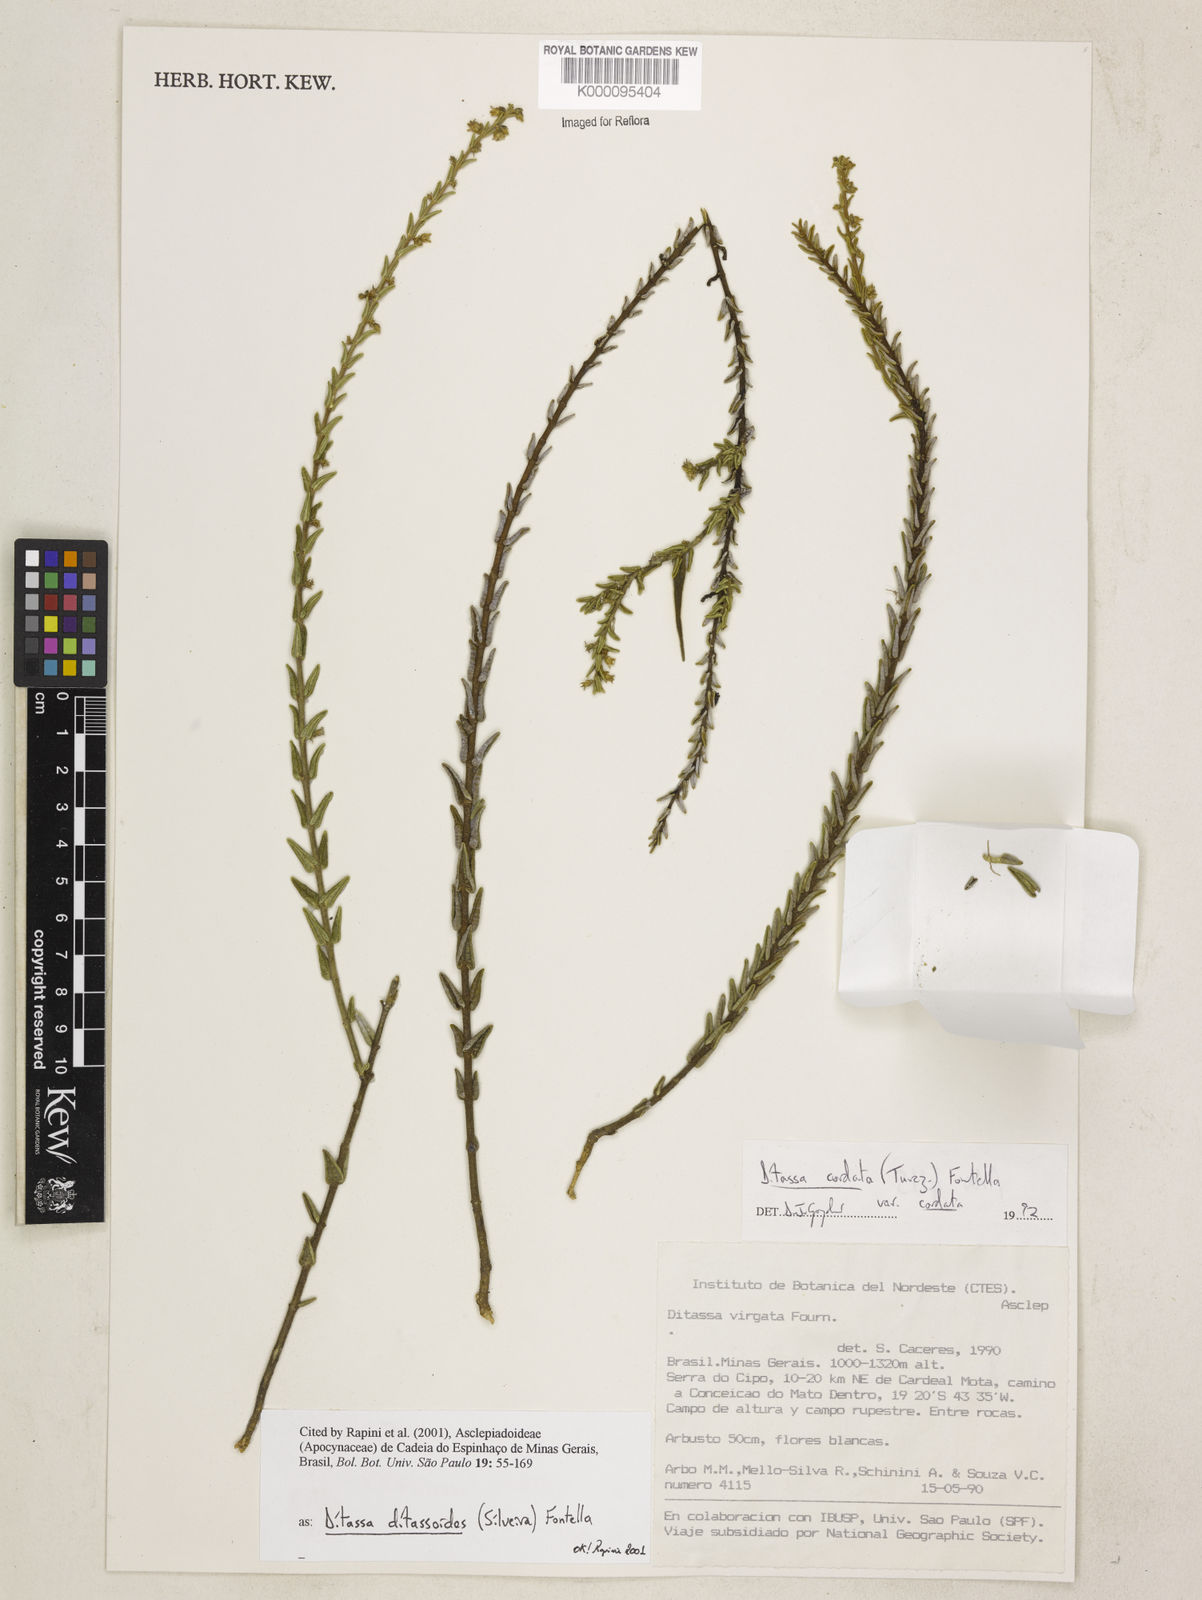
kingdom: Plantae
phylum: Tracheophyta
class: Magnoliopsida
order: Gentianales
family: Apocynaceae
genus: Minaria
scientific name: Minaria ditassoides
